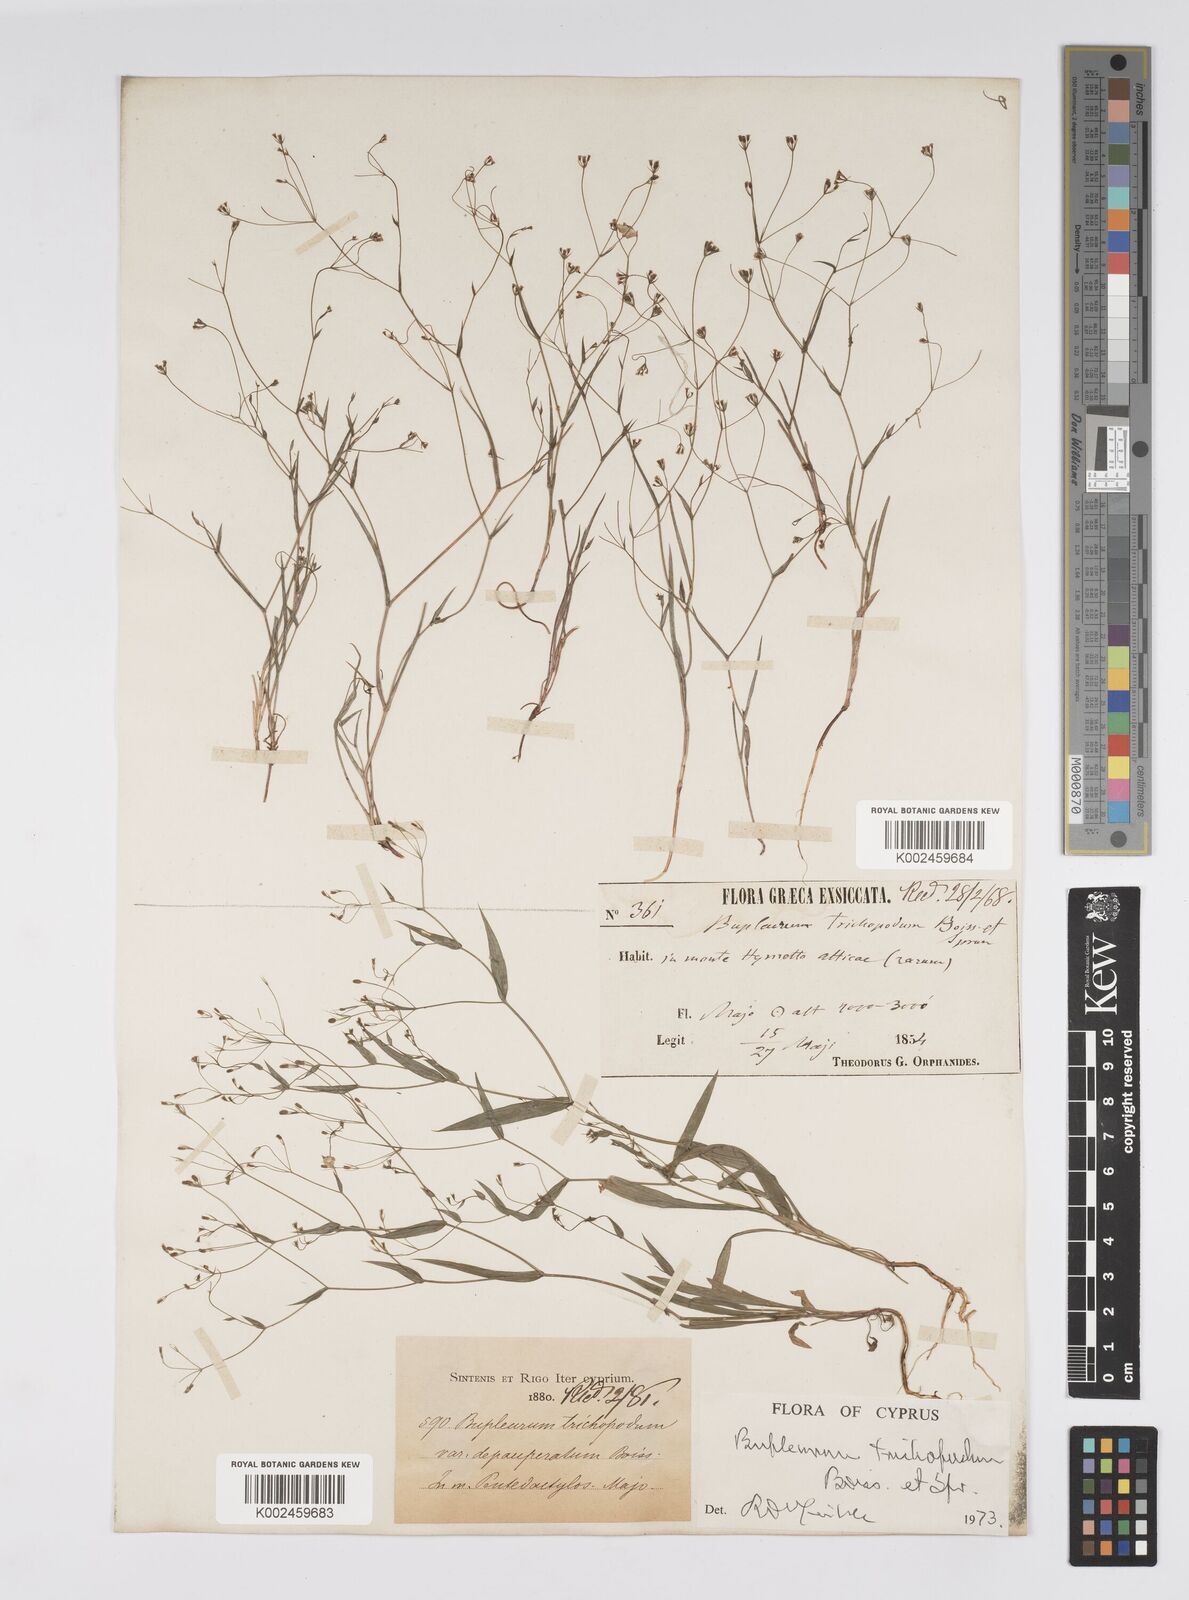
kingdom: Plantae
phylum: Tracheophyta
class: Magnoliopsida
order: Apiales
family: Apiaceae
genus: Bupleurum
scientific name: Bupleurum trichopodum
